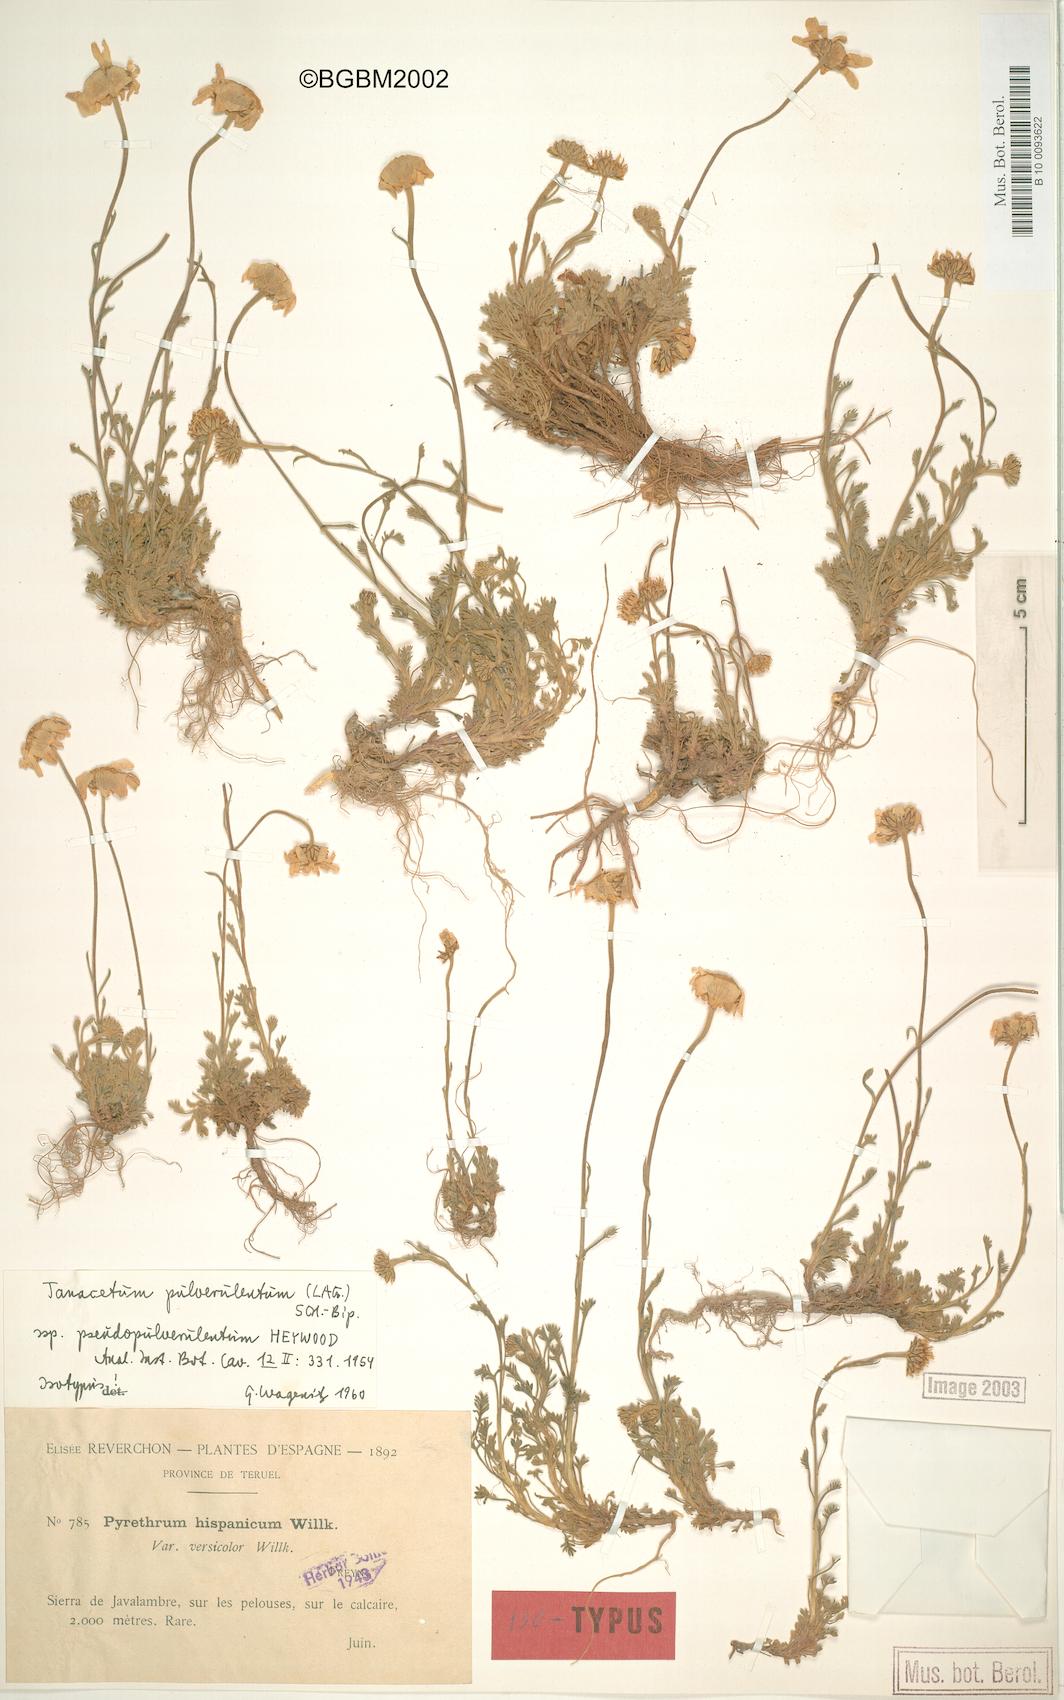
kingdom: Plantae
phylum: Tracheophyta
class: Magnoliopsida
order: Asterales
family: Asteraceae
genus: Leucanthemopsis
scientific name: Leucanthemopsis heywoodii
